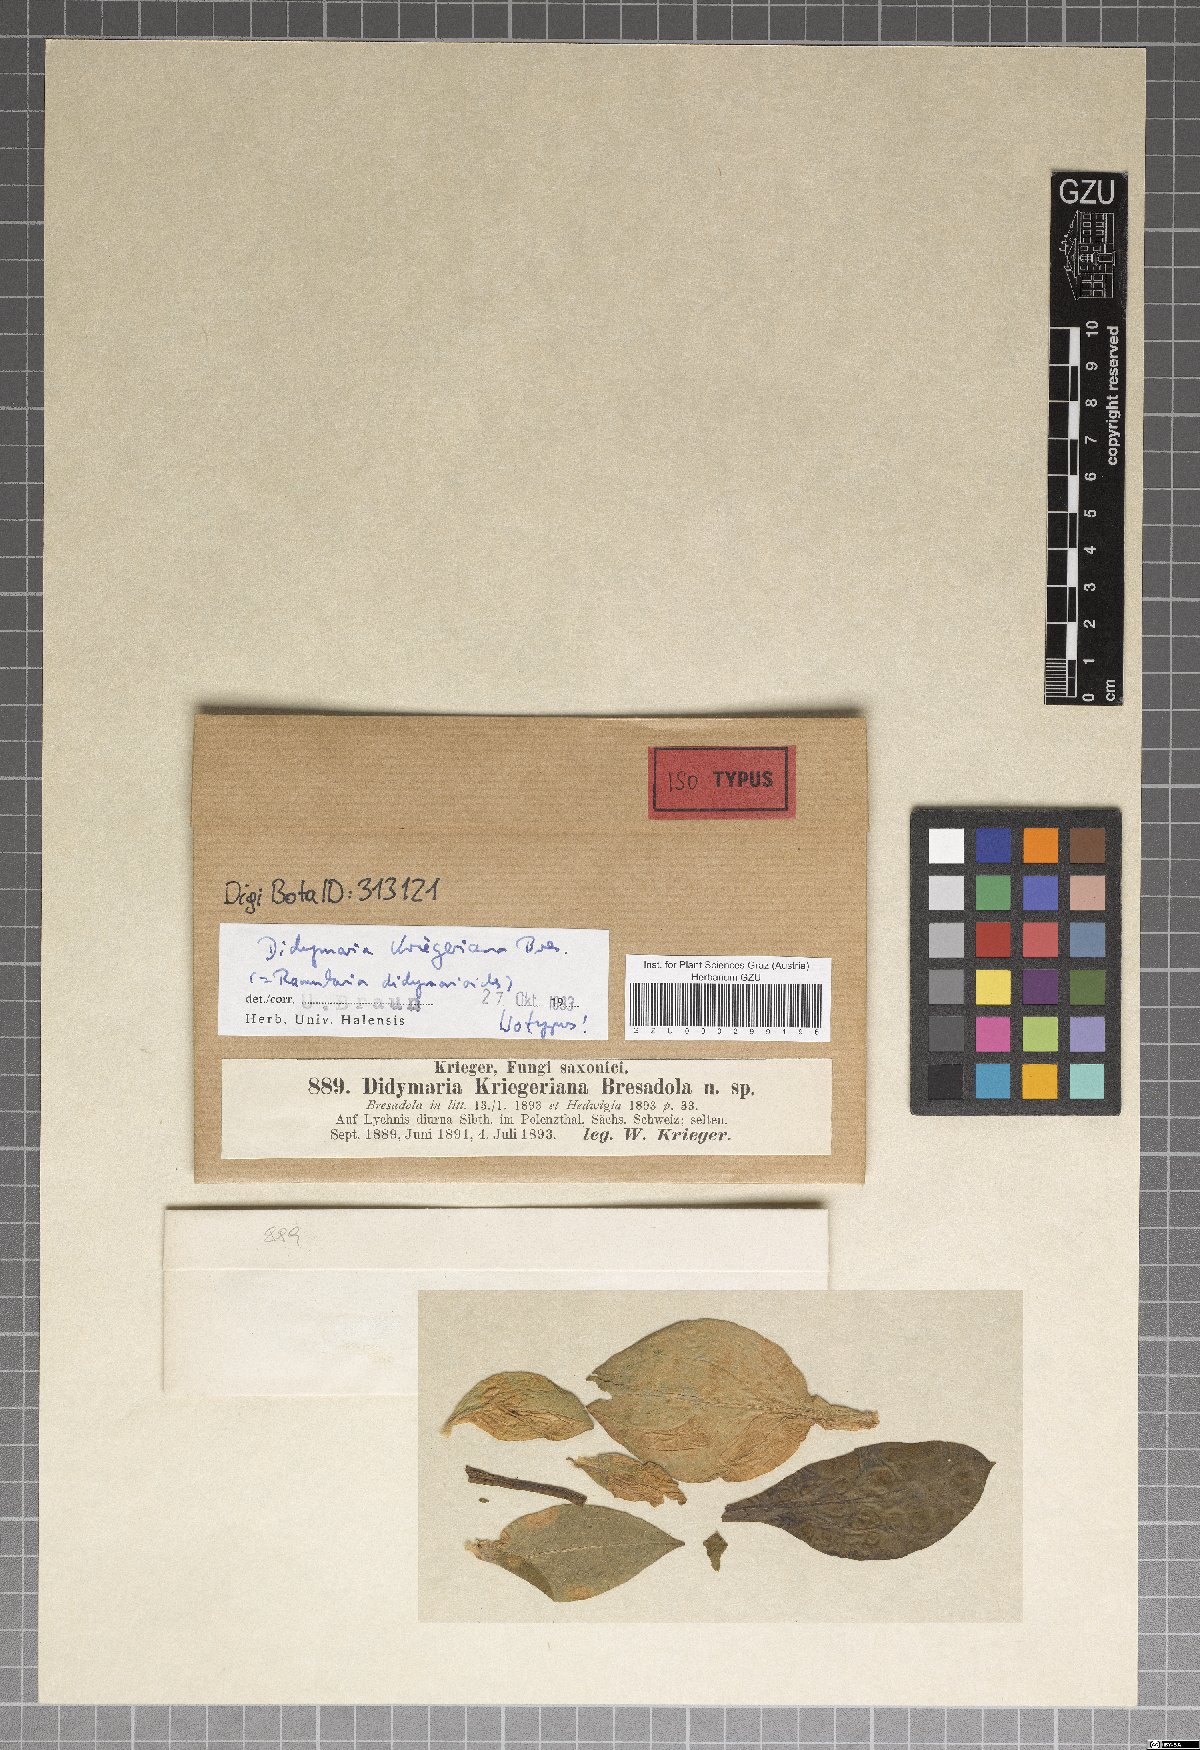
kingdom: Fungi
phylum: Ascomycota
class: Dothideomycetes
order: Mycosphaerellales
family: Mycosphaerellaceae
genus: Ramularia
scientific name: Ramularia rhabdospora
